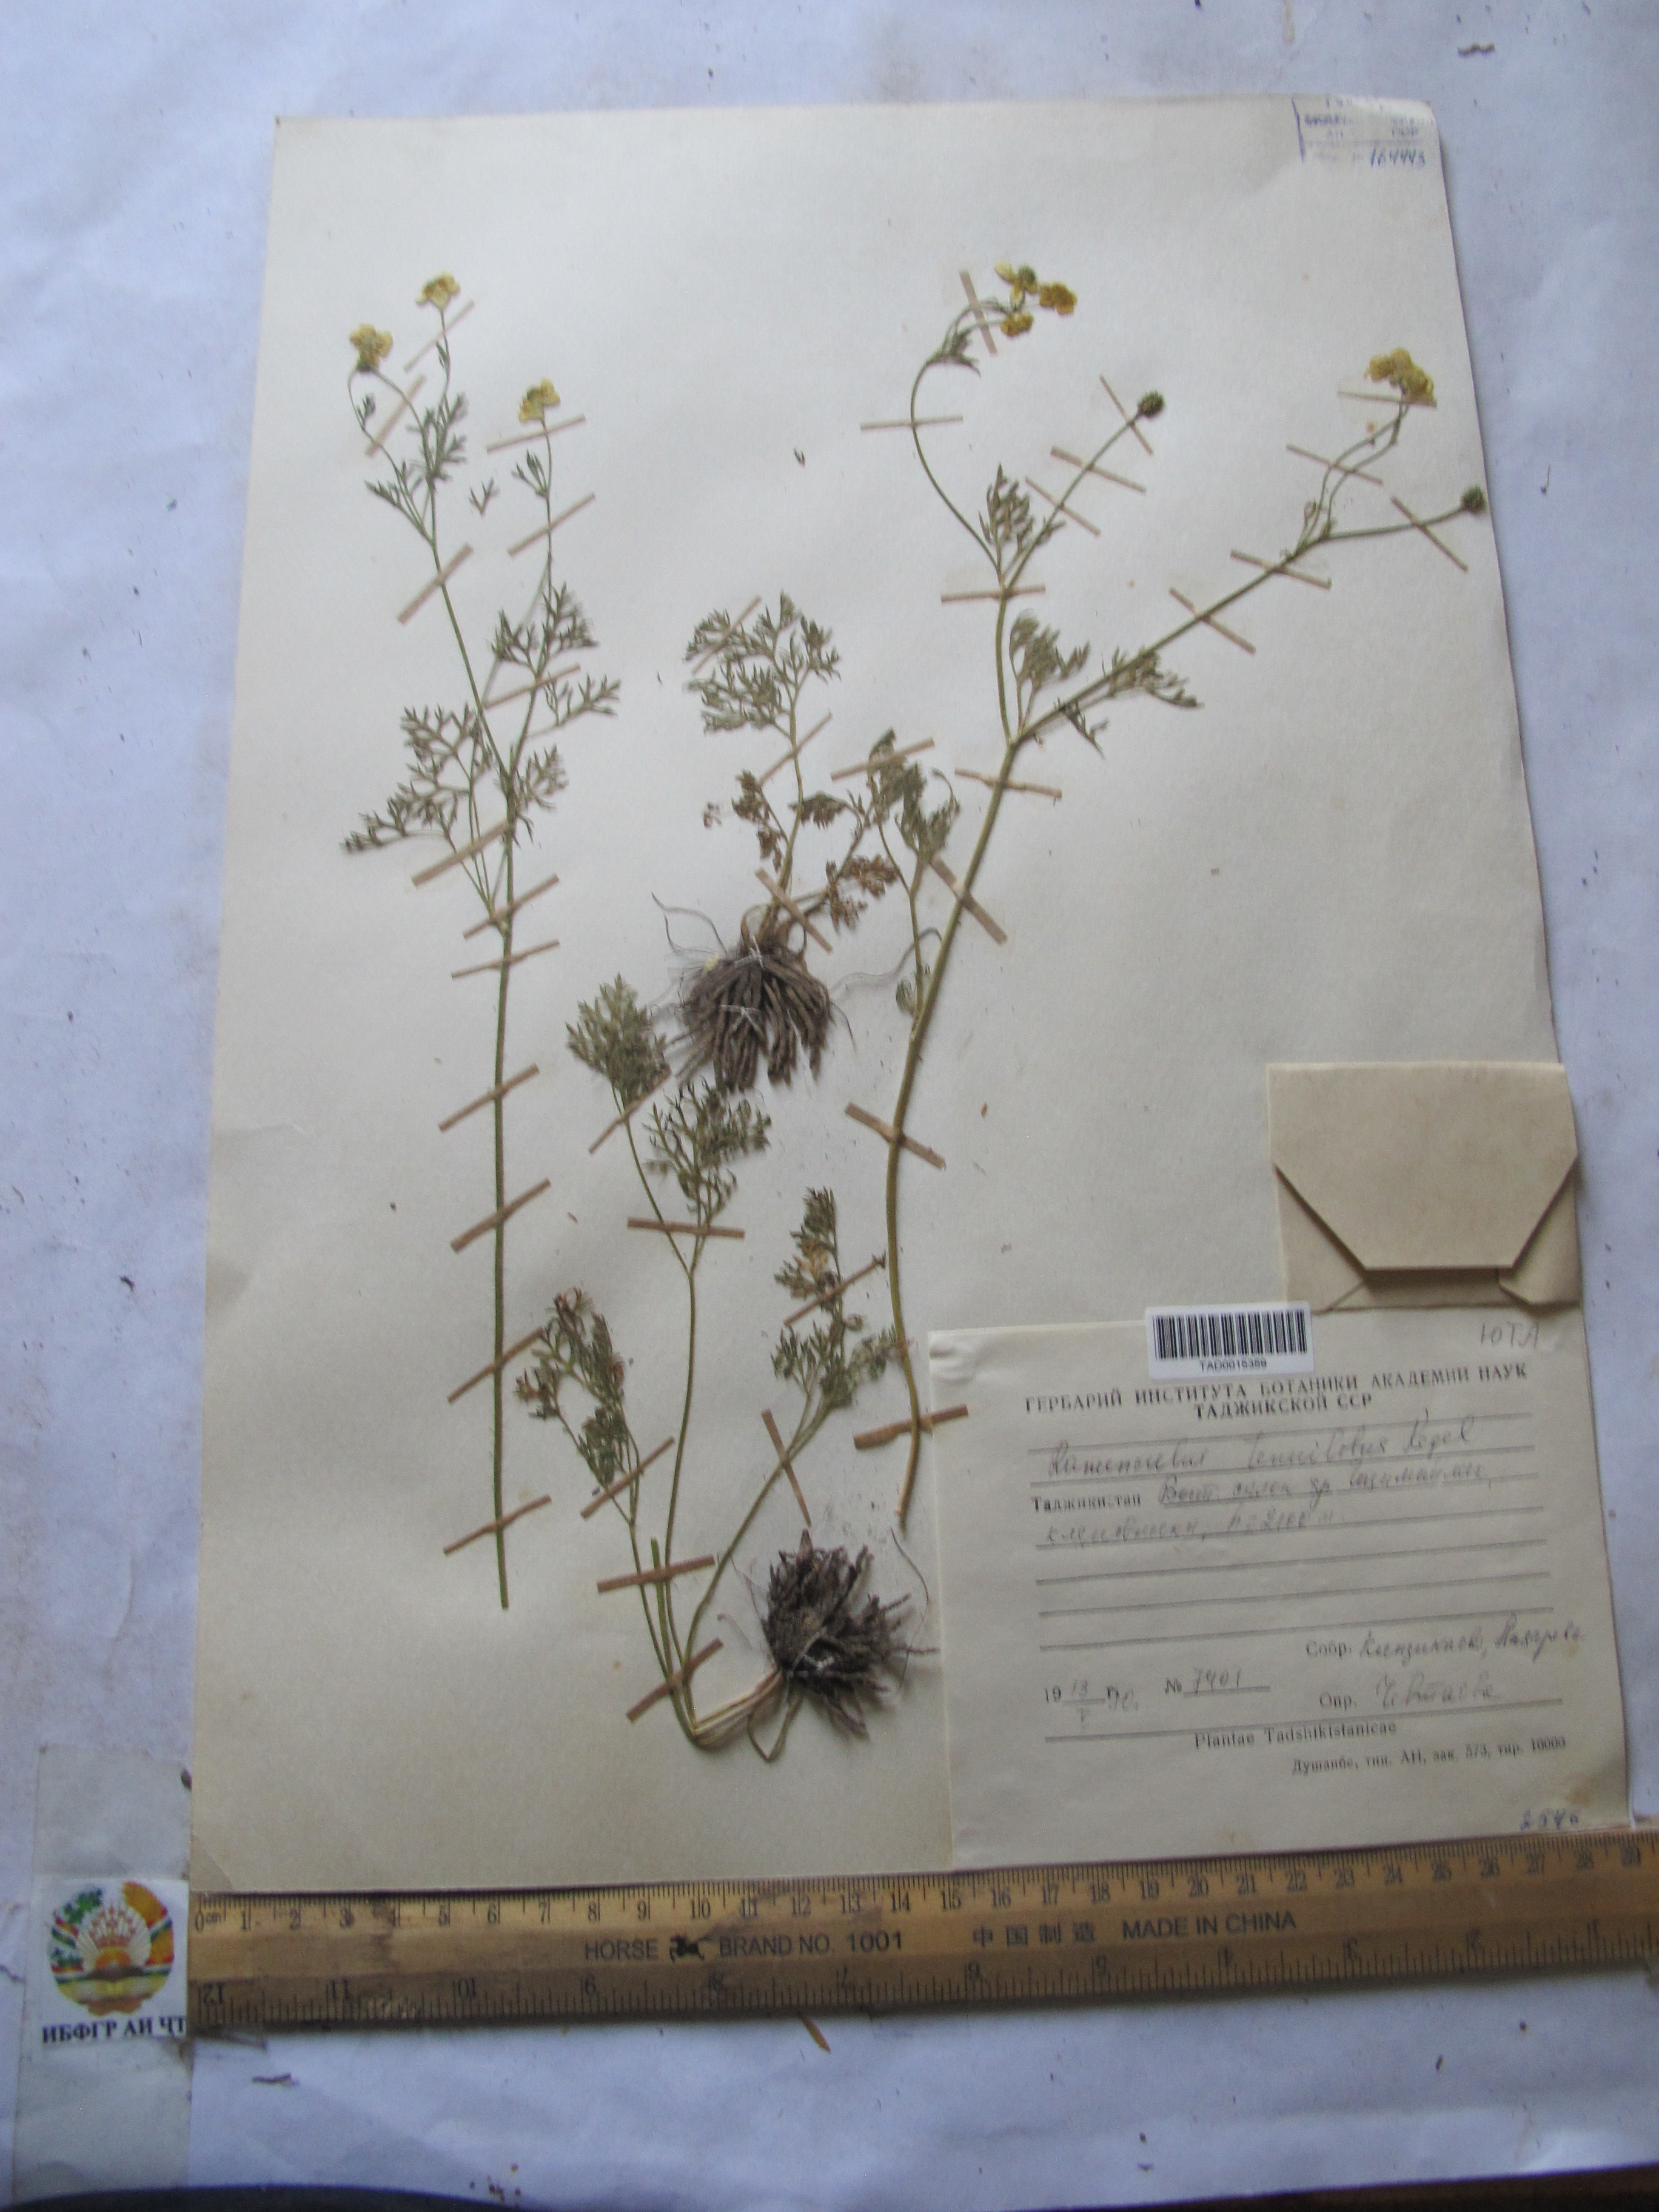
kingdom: Plantae
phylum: Tracheophyta
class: Magnoliopsida
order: Ranunculales
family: Ranunculaceae
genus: Ranunculus
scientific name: Ranunculus tenuilobus
